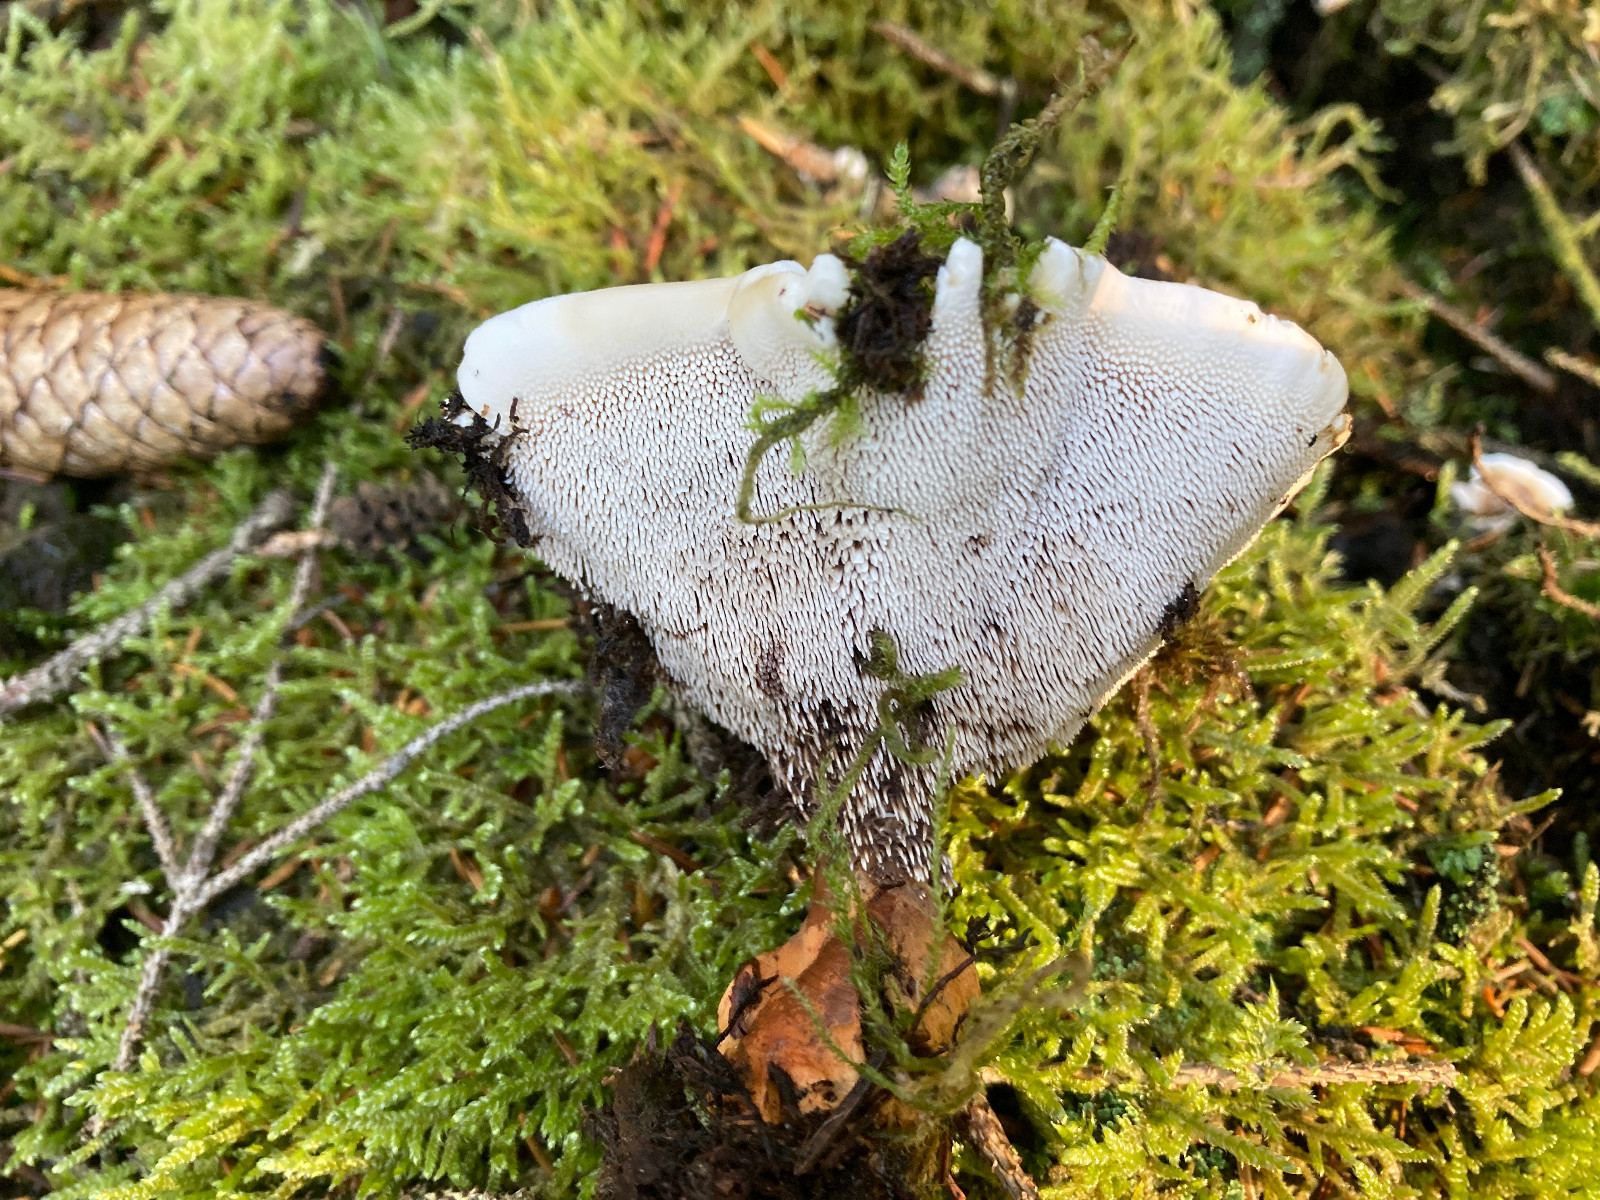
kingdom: Fungi
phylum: Basidiomycota
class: Agaricomycetes
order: Thelephorales
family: Bankeraceae
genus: Hydnellum
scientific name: Hydnellum aurantiacum
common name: orange korkpigsvamp
